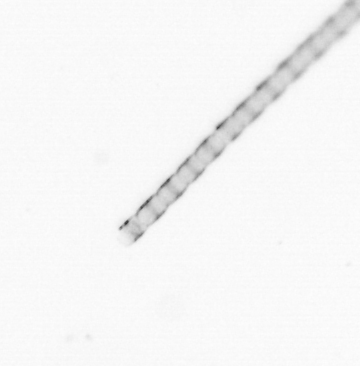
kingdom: Chromista
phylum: Ochrophyta
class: Bacillariophyceae
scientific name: Bacillariophyceae
